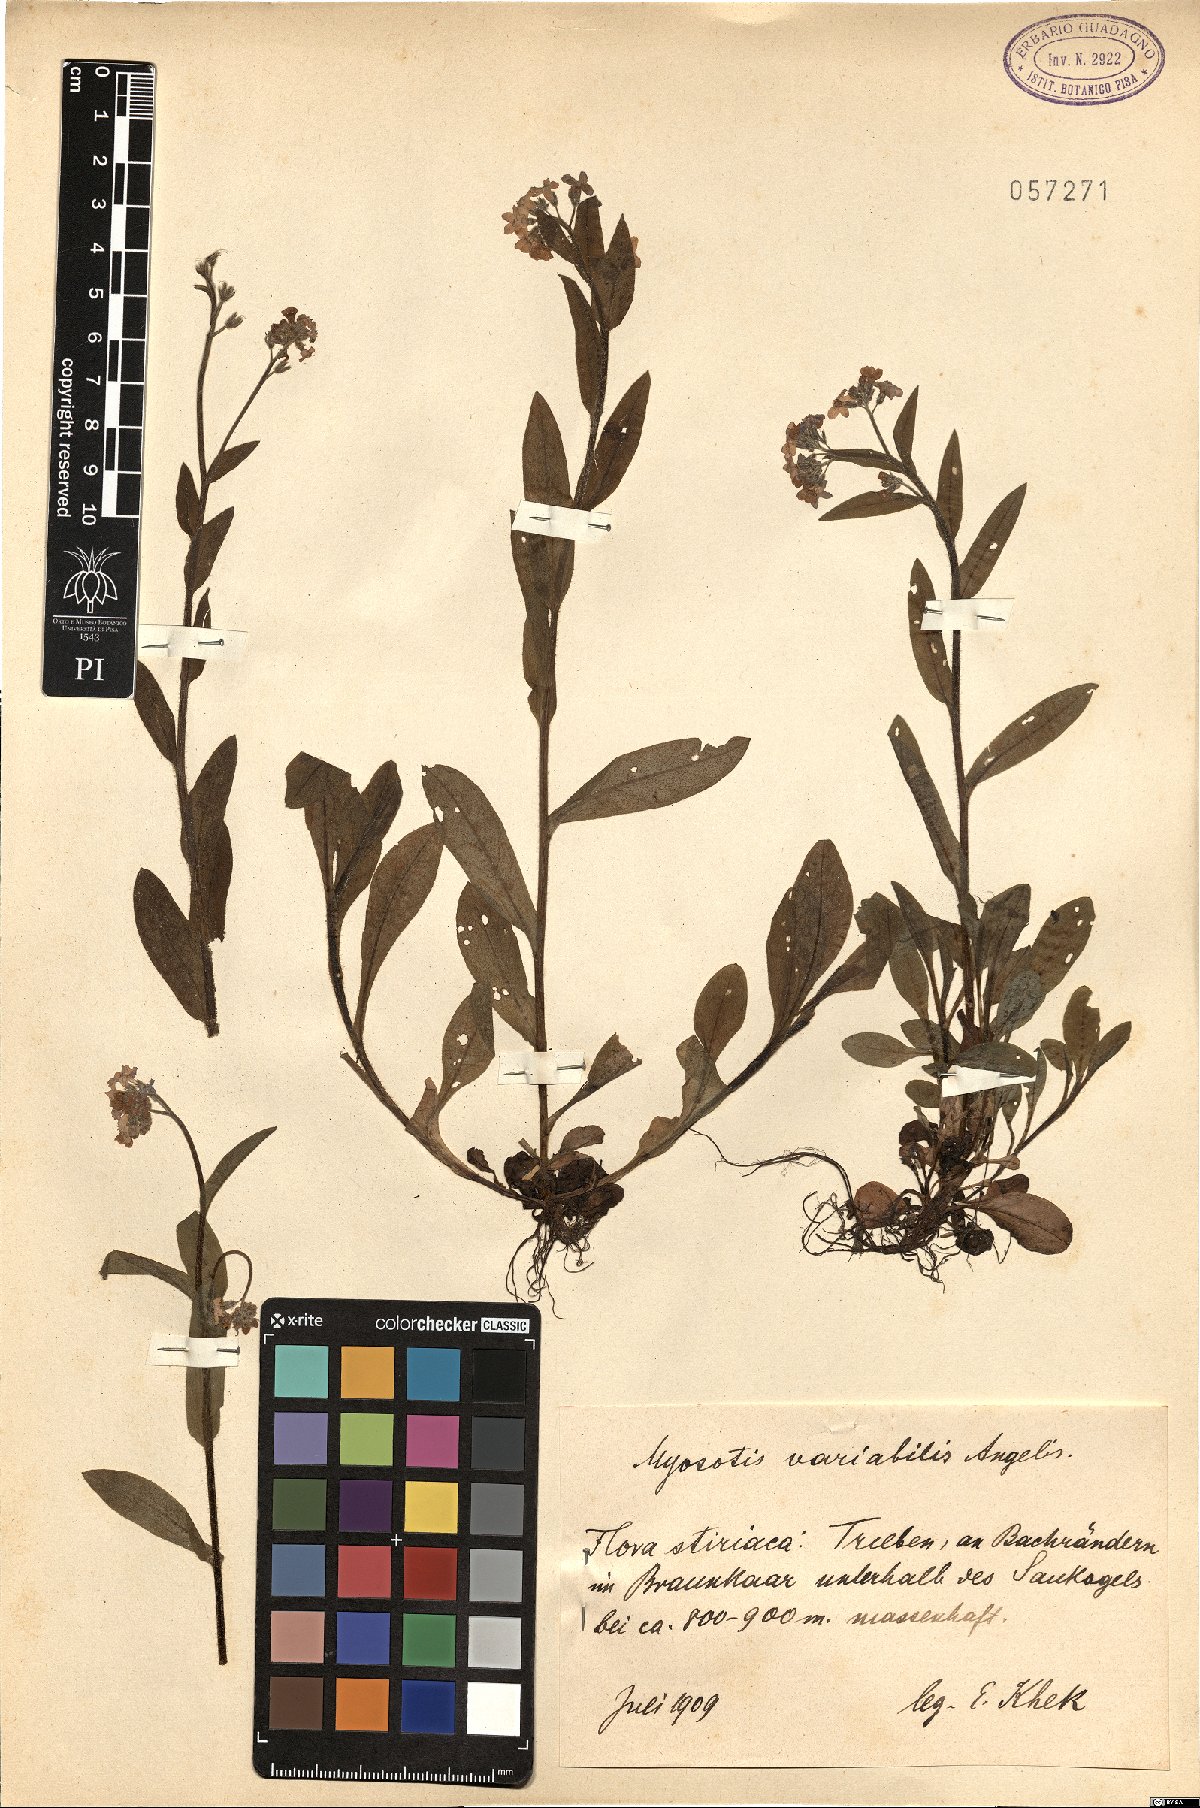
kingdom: Plantae
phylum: Tracheophyta
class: Magnoliopsida
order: Boraginales
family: Boraginaceae
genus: Myosotis
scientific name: Myosotis decumbens
